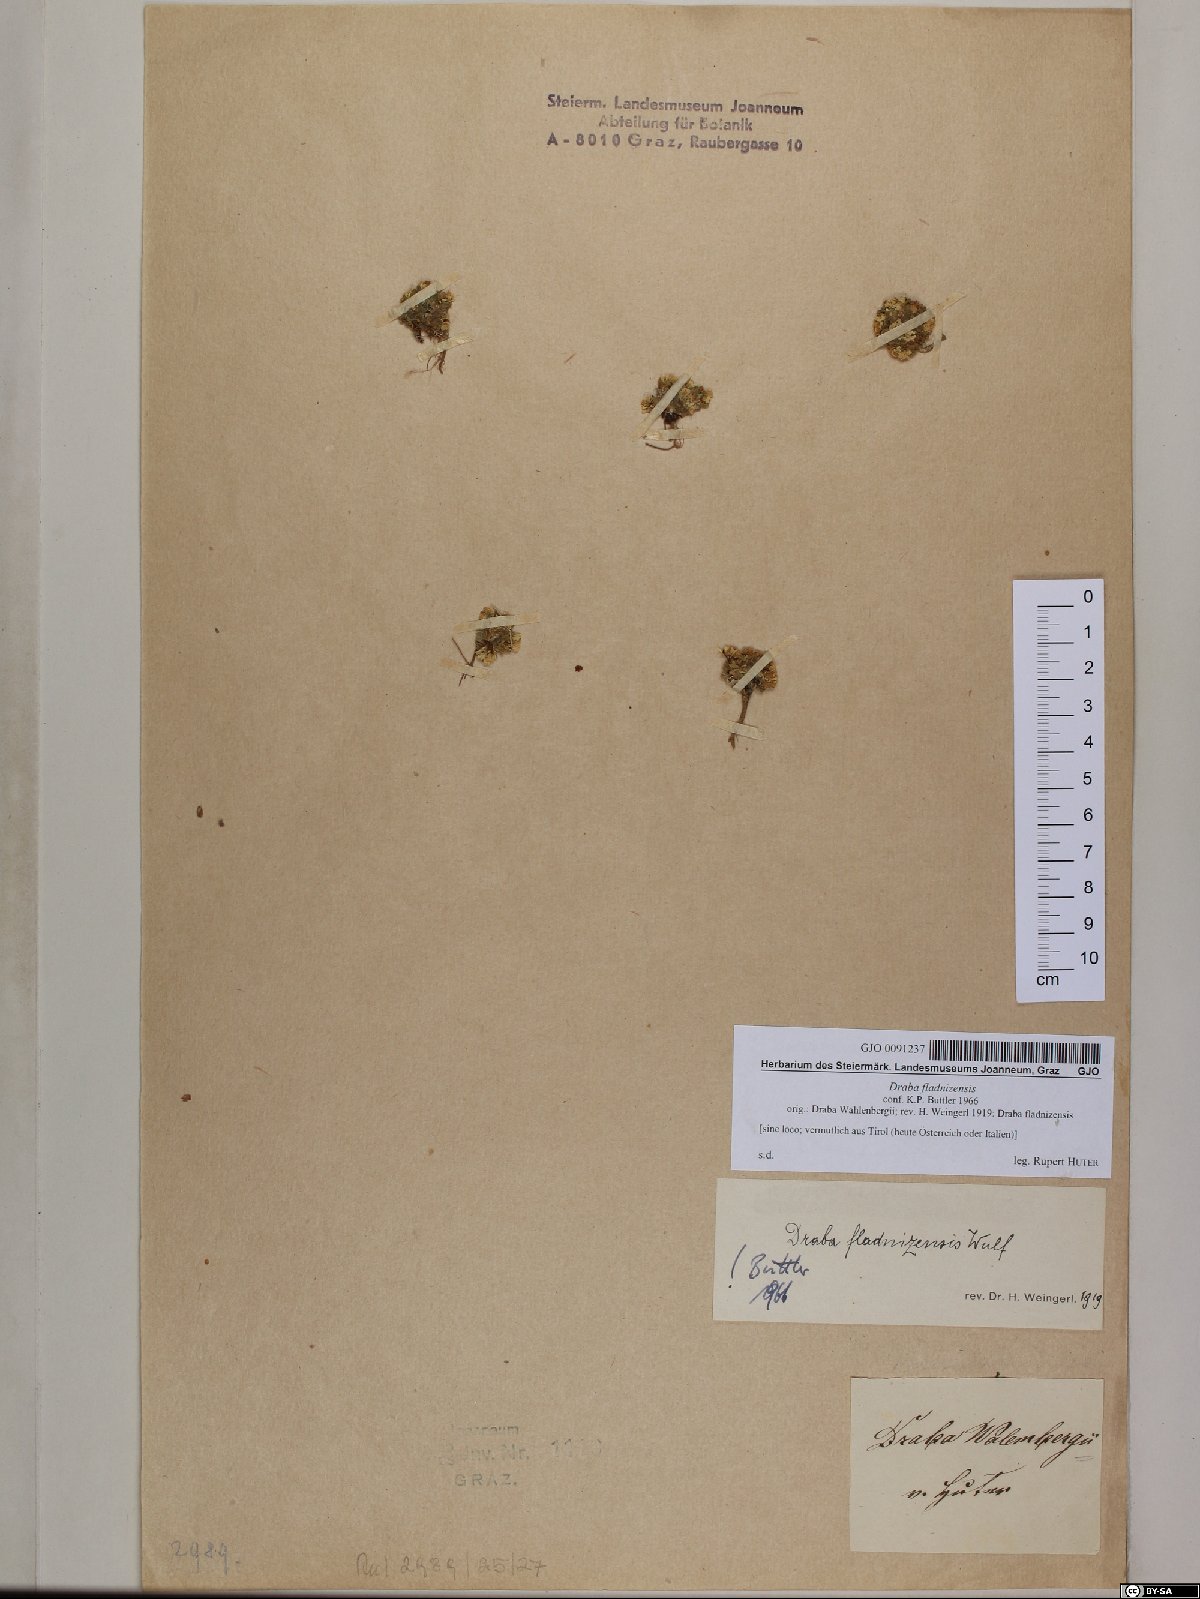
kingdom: Plantae
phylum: Tracheophyta
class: Magnoliopsida
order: Brassicales
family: Brassicaceae
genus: Draba
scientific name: Draba fladnizensis
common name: Austrian draba
